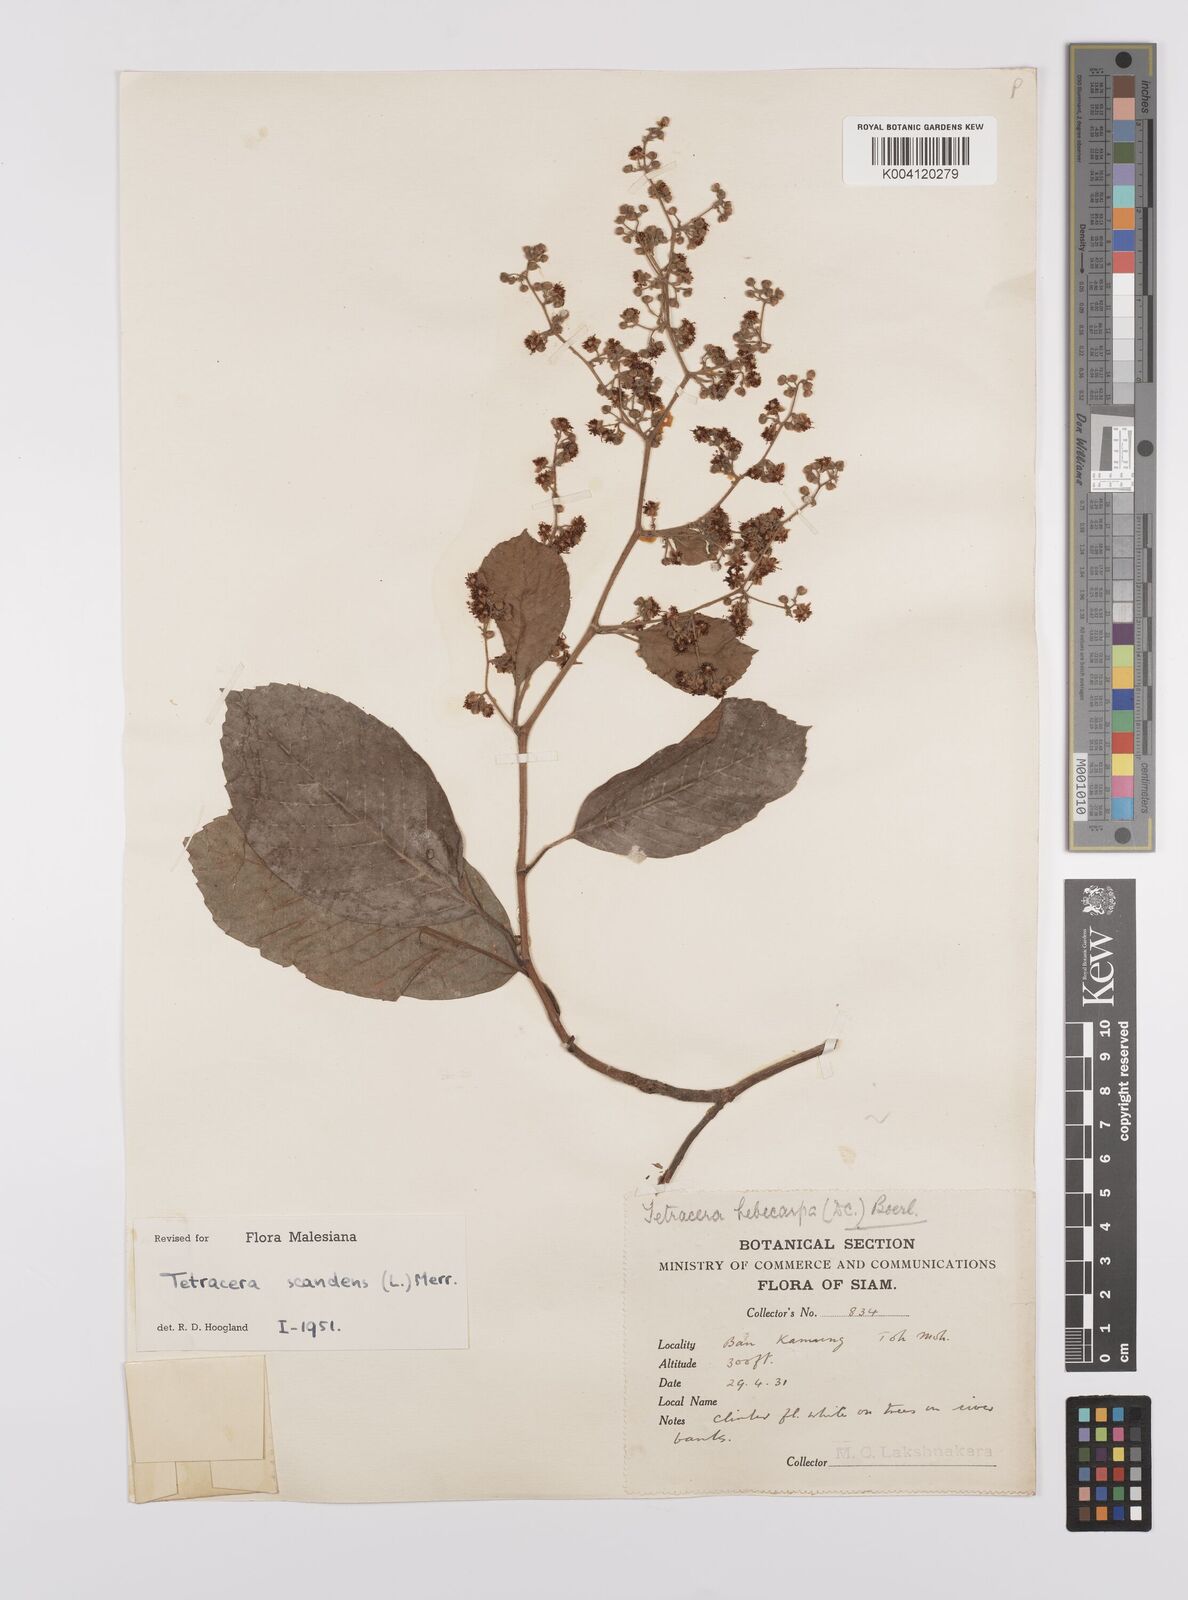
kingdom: Plantae
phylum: Tracheophyta
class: Magnoliopsida
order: Dilleniales
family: Dilleniaceae
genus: Tetracera
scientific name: Tetracera
